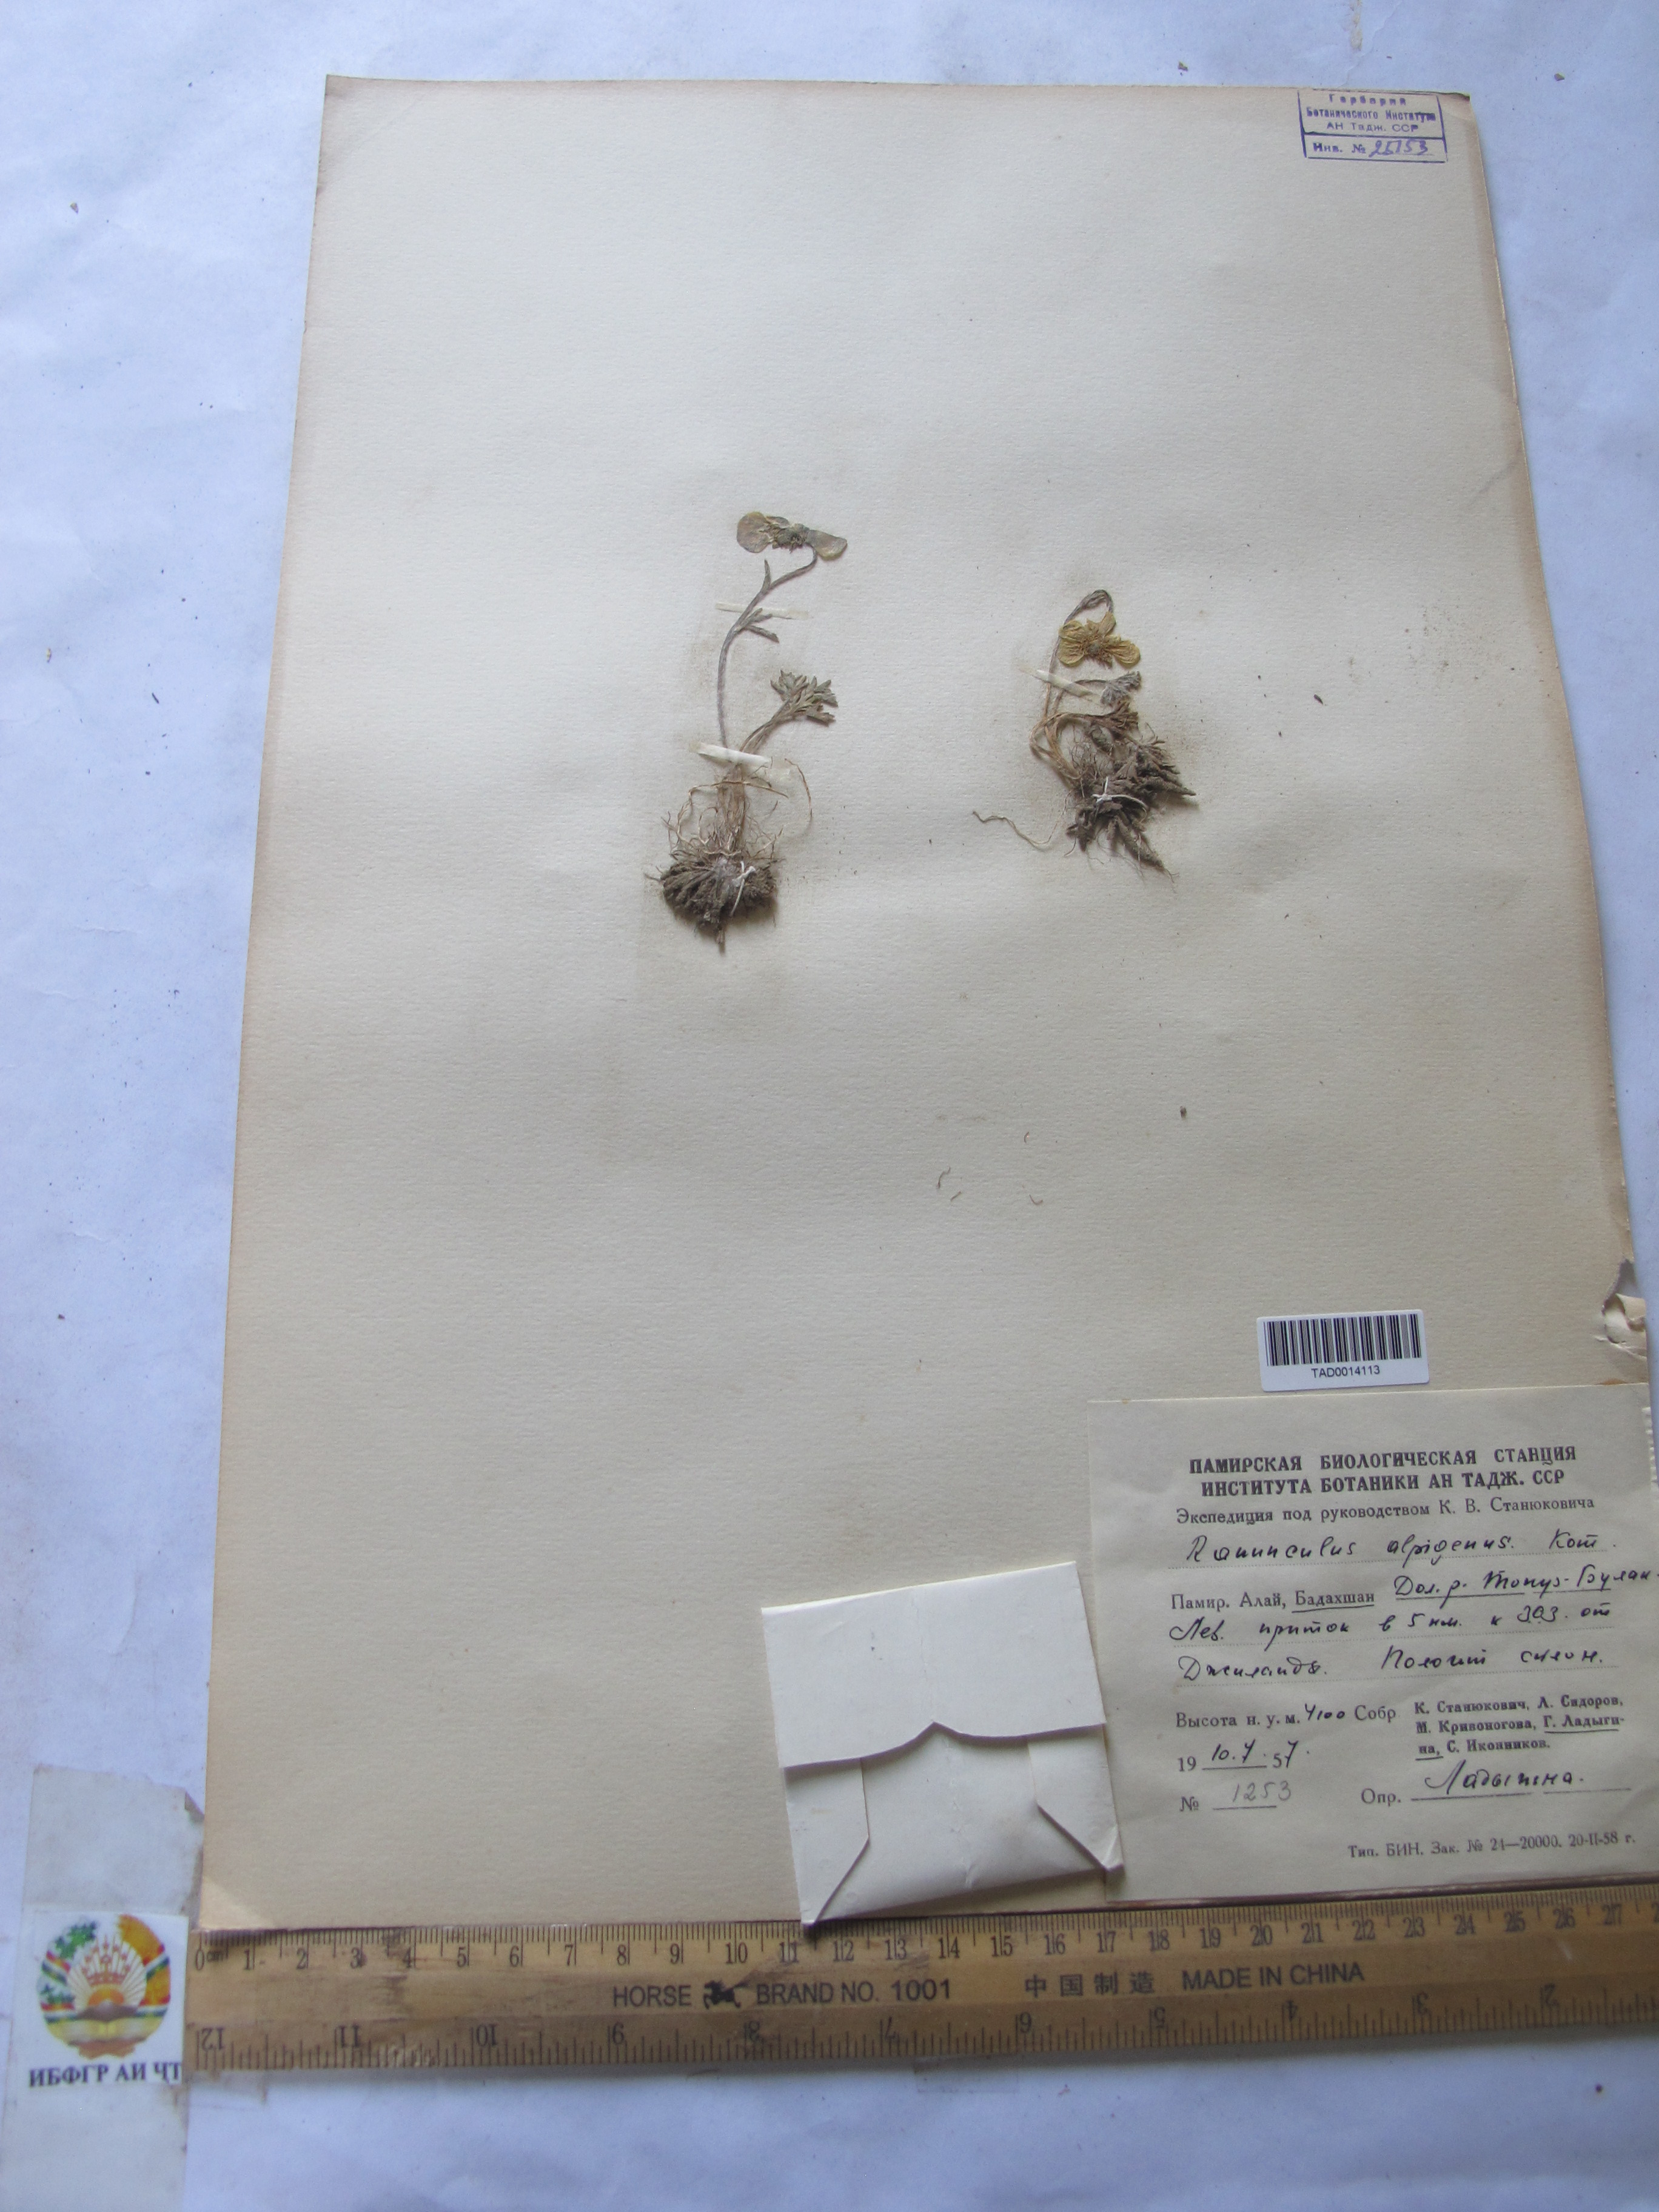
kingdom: Plantae
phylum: Tracheophyta
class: Magnoliopsida
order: Ranunculales
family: Ranunculaceae
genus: Ranunculus
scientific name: Ranunculus alpigenus
